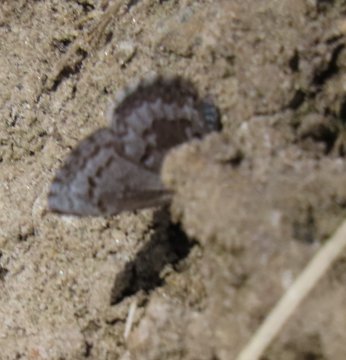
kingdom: Animalia
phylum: Arthropoda
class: Insecta
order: Lepidoptera
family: Lycaenidae
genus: Celastrina
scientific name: Celastrina lucia
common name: Northern Spring Azure
